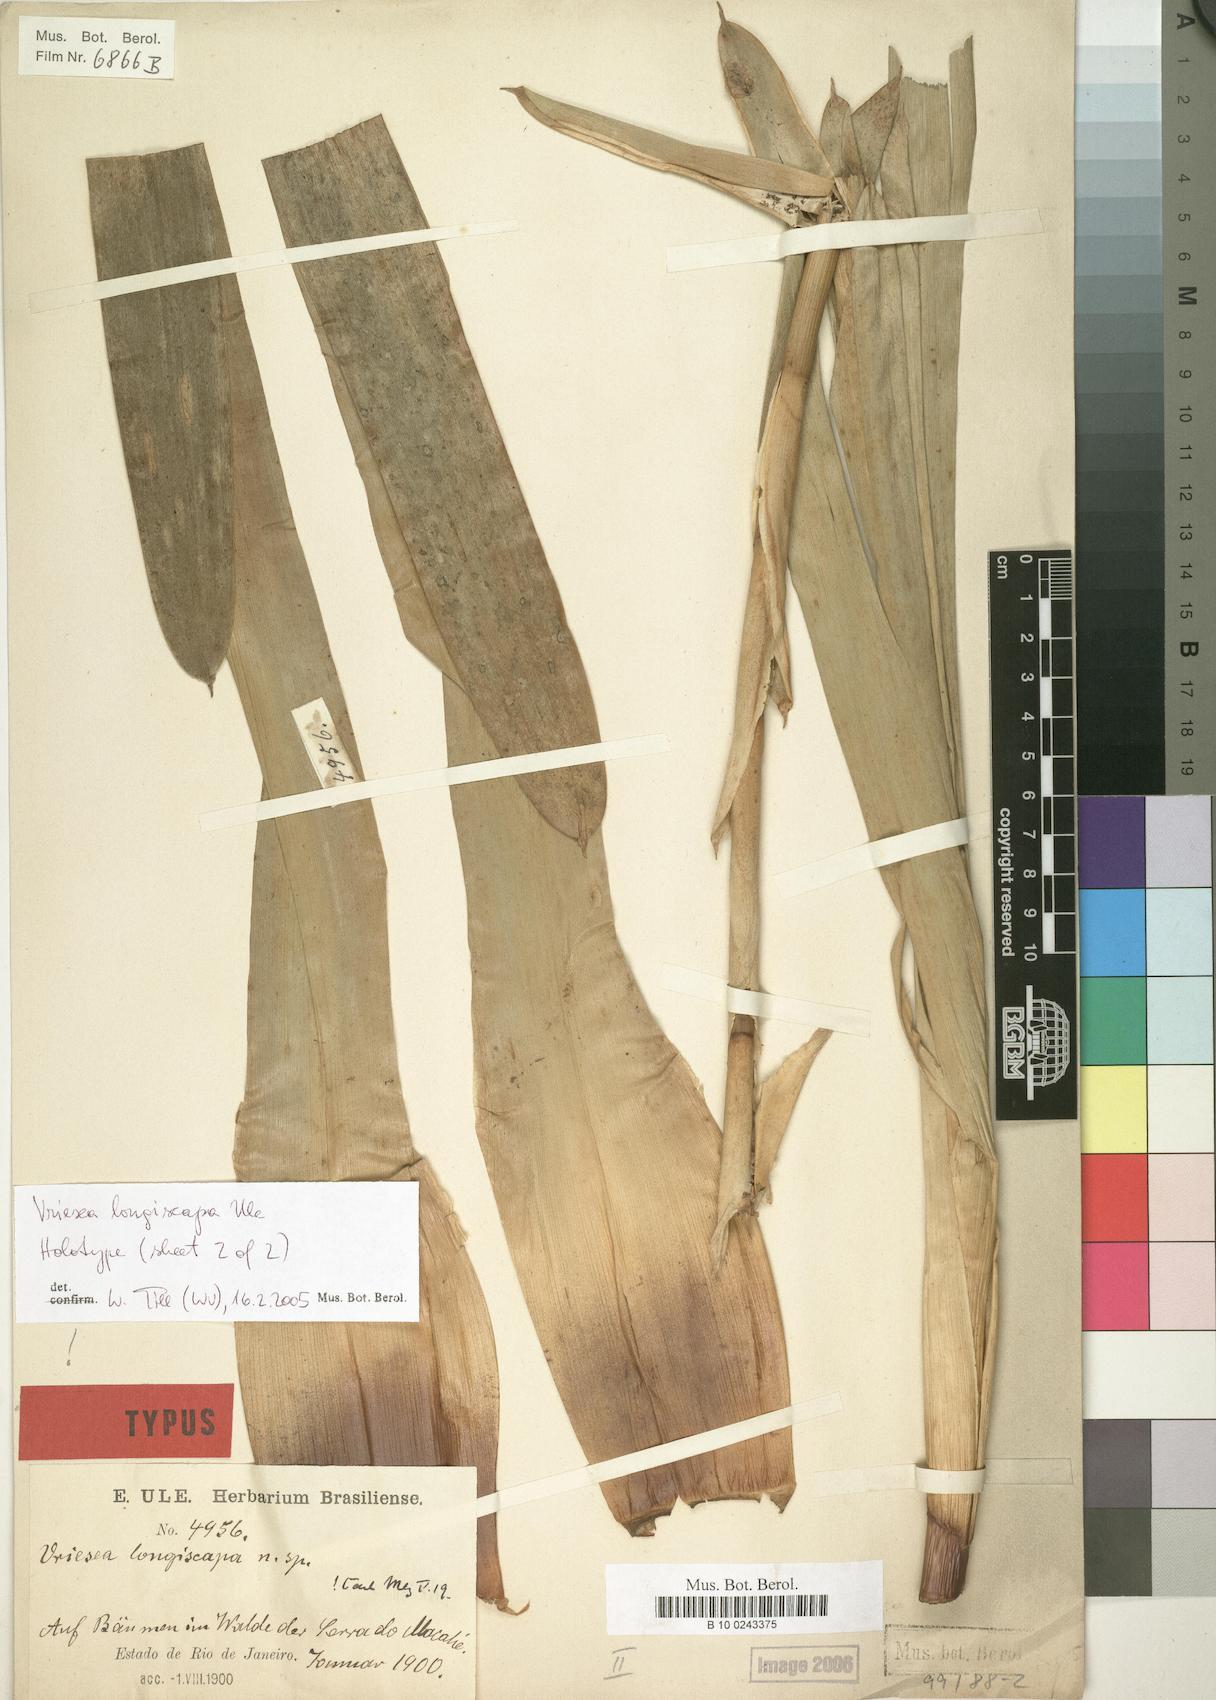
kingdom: Plantae
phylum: Tracheophyta
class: Liliopsida
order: Poales
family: Bromeliaceae
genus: Vriesea
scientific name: Vriesea longiscapa
